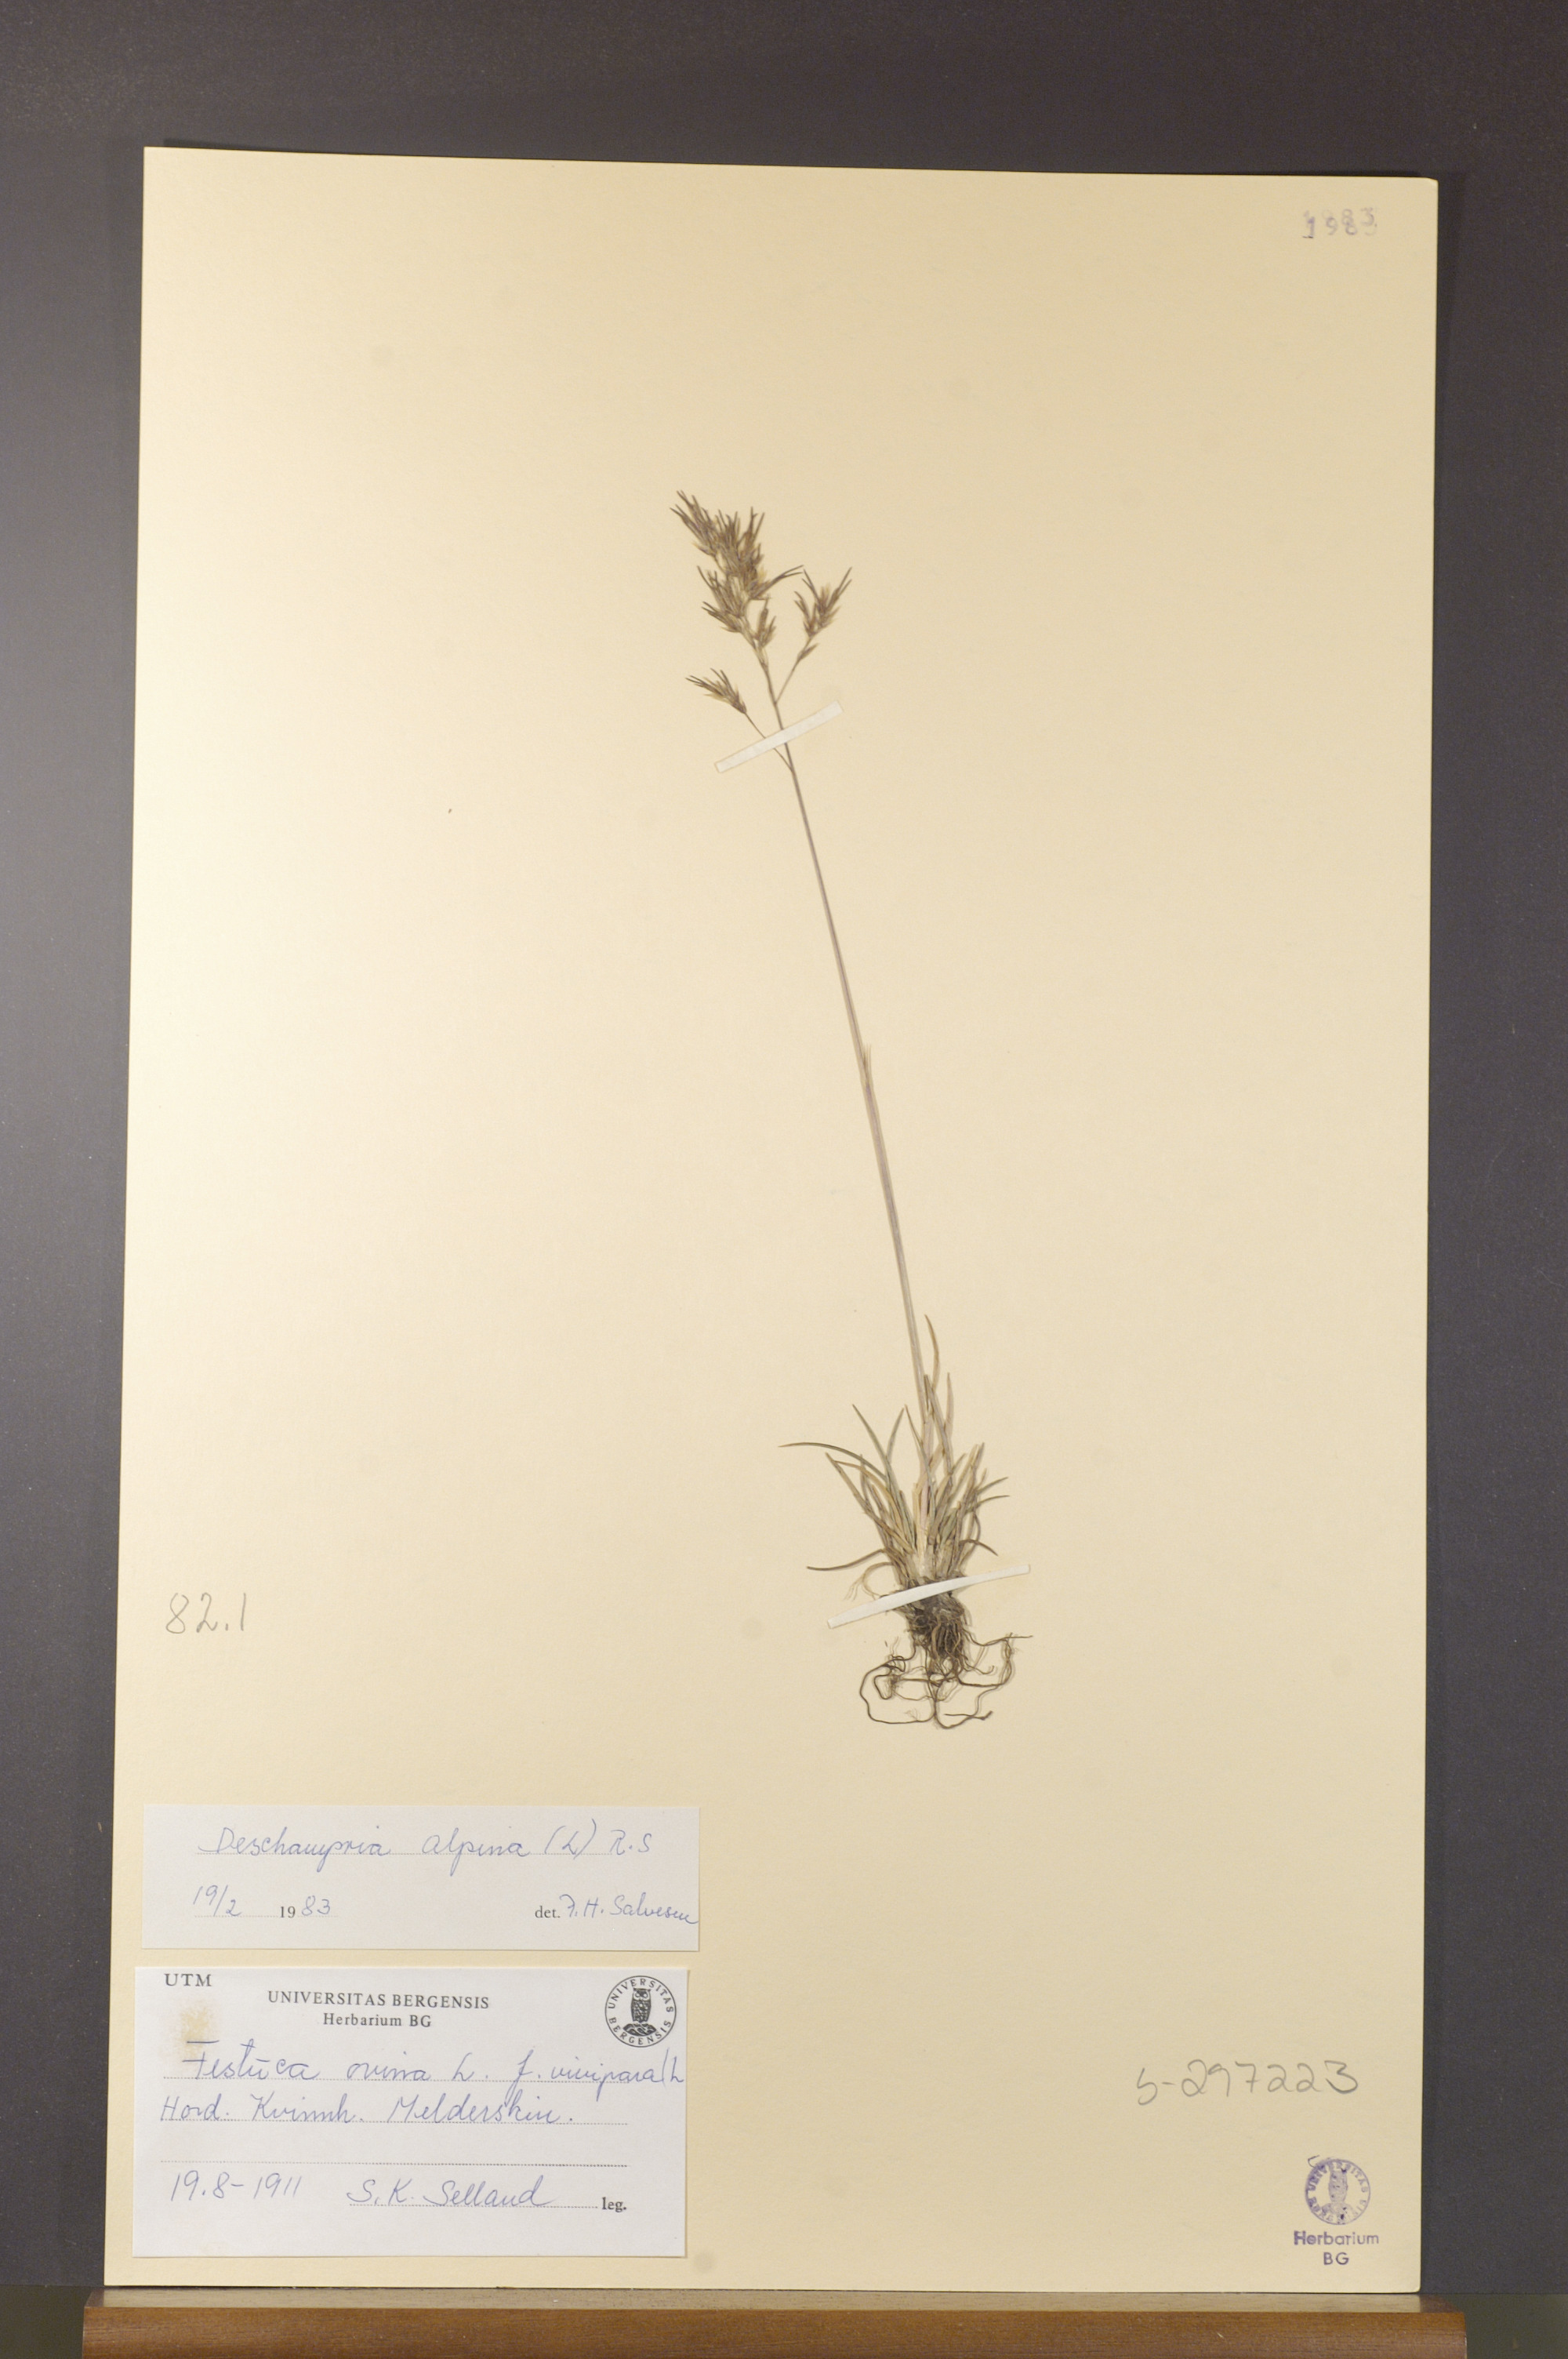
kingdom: Plantae
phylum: Tracheophyta
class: Liliopsida
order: Poales
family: Poaceae
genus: Deschampsia
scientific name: Deschampsia cespitosa
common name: Tufted hair-grass
